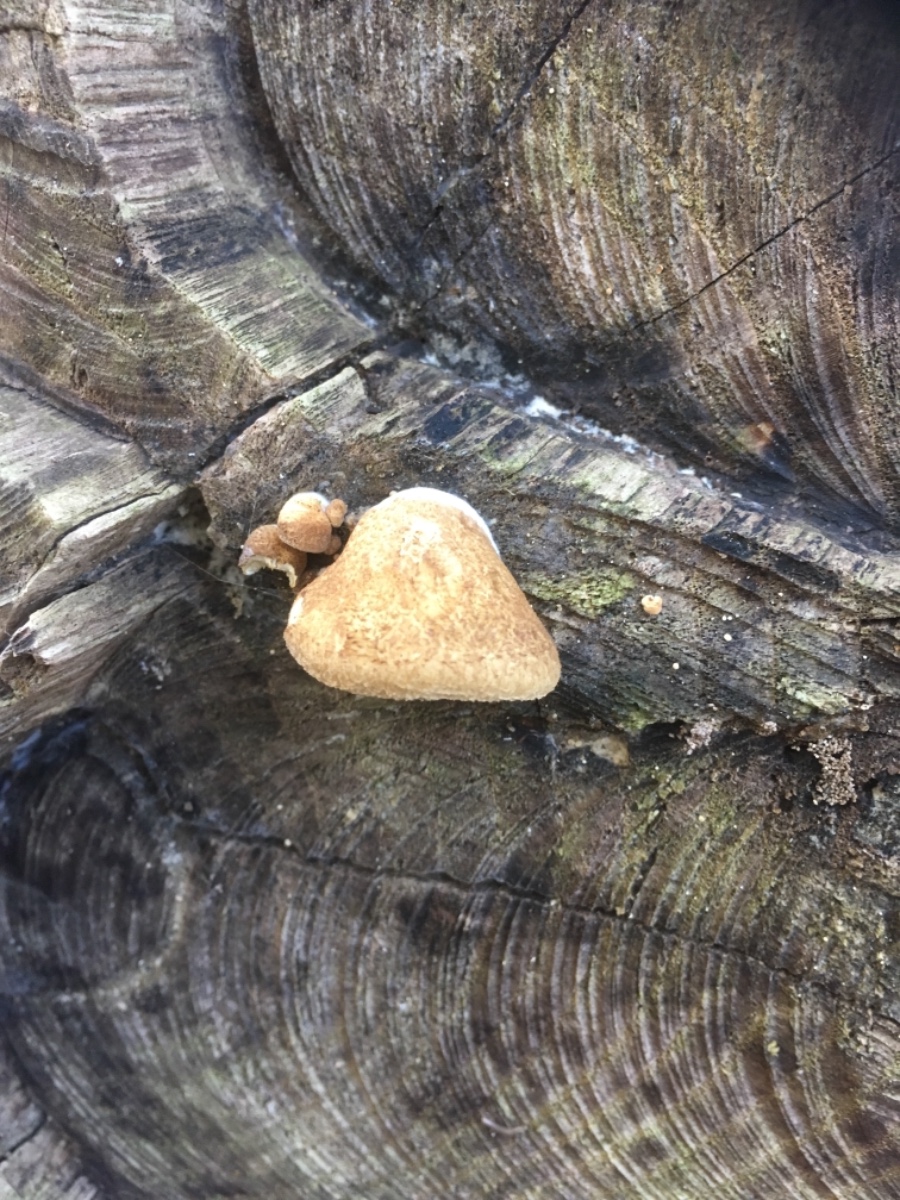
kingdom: Fungi
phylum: Basidiomycota
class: Agaricomycetes
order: Agaricales
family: Crepidotaceae
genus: Crepidotus
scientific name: Crepidotus calolepis
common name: småskællet muslingesvamp
